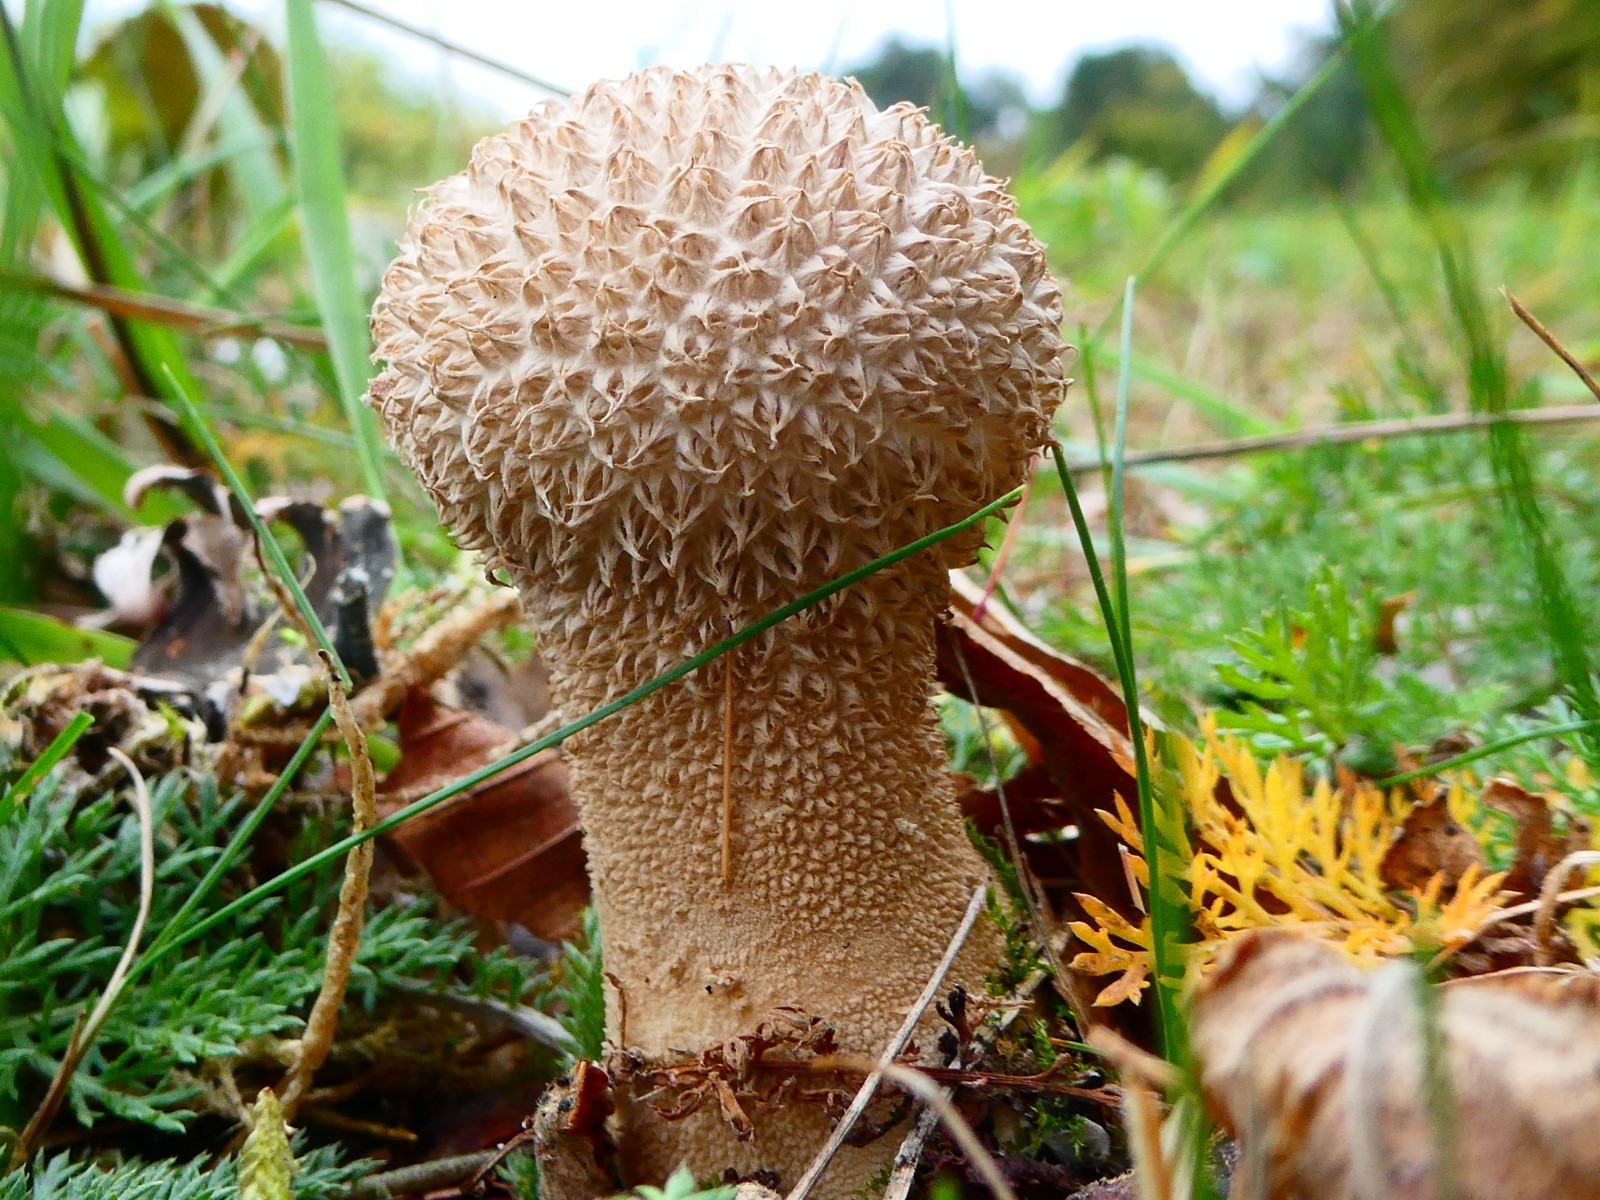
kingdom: Fungi
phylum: Basidiomycota
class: Agaricomycetes
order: Agaricales
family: Lycoperdaceae
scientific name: Lycoperdaceae
